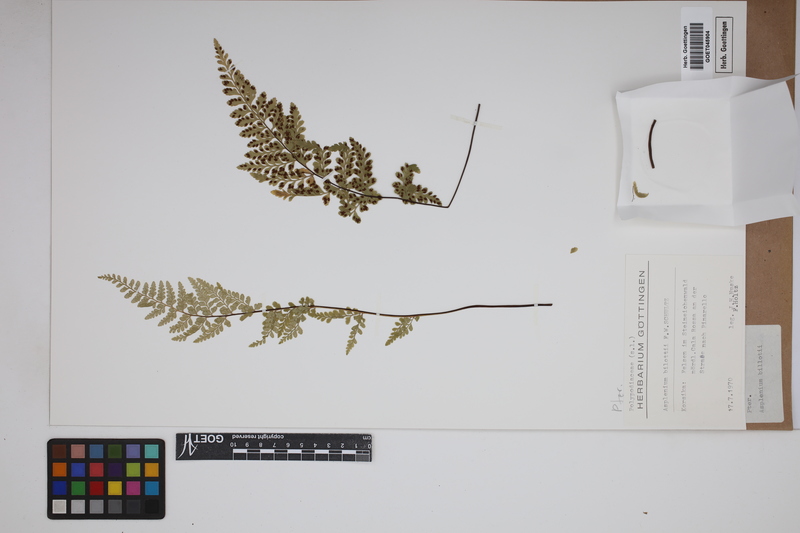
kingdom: Plantae
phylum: Tracheophyta
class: Polypodiopsida
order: Polypodiales
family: Aspleniaceae
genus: Asplenium
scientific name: Asplenium obovatum
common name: Lanceolate spleenwort
